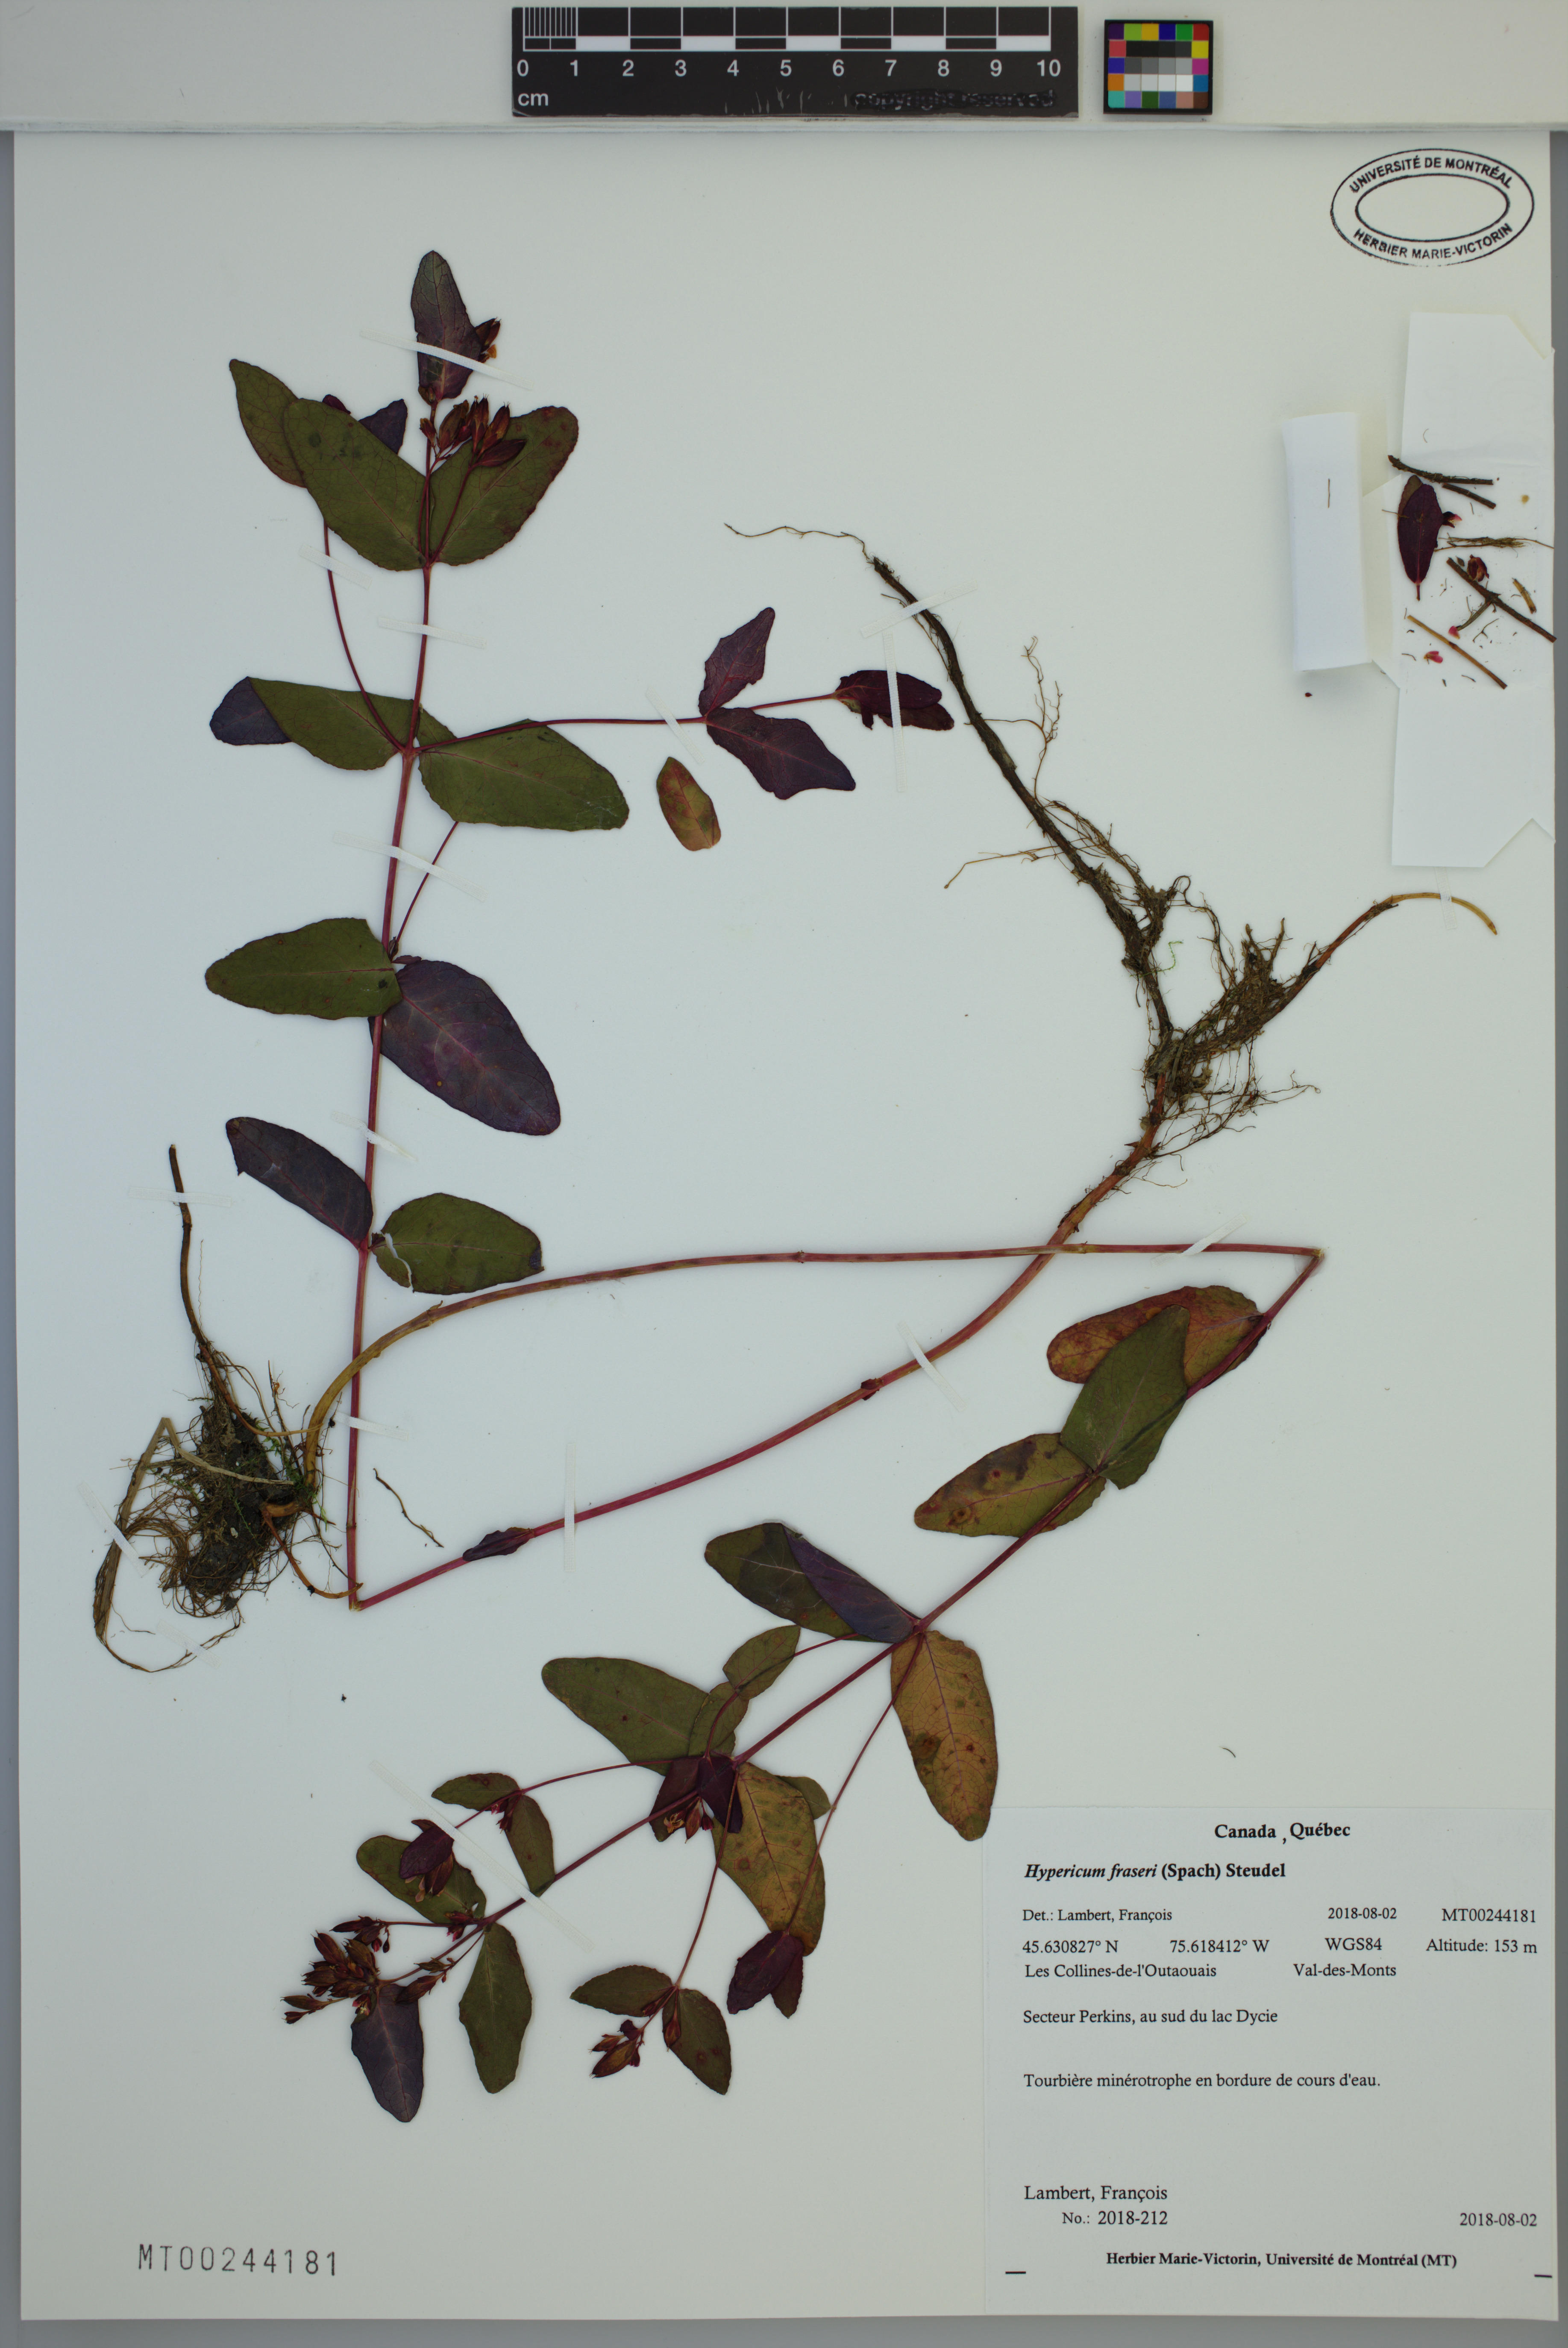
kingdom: Plantae
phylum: Tracheophyta
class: Magnoliopsida
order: Malpighiales
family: Hypericaceae
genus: Triadenum
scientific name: Triadenum fraseri
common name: Fraser's marsh st. johnswort
